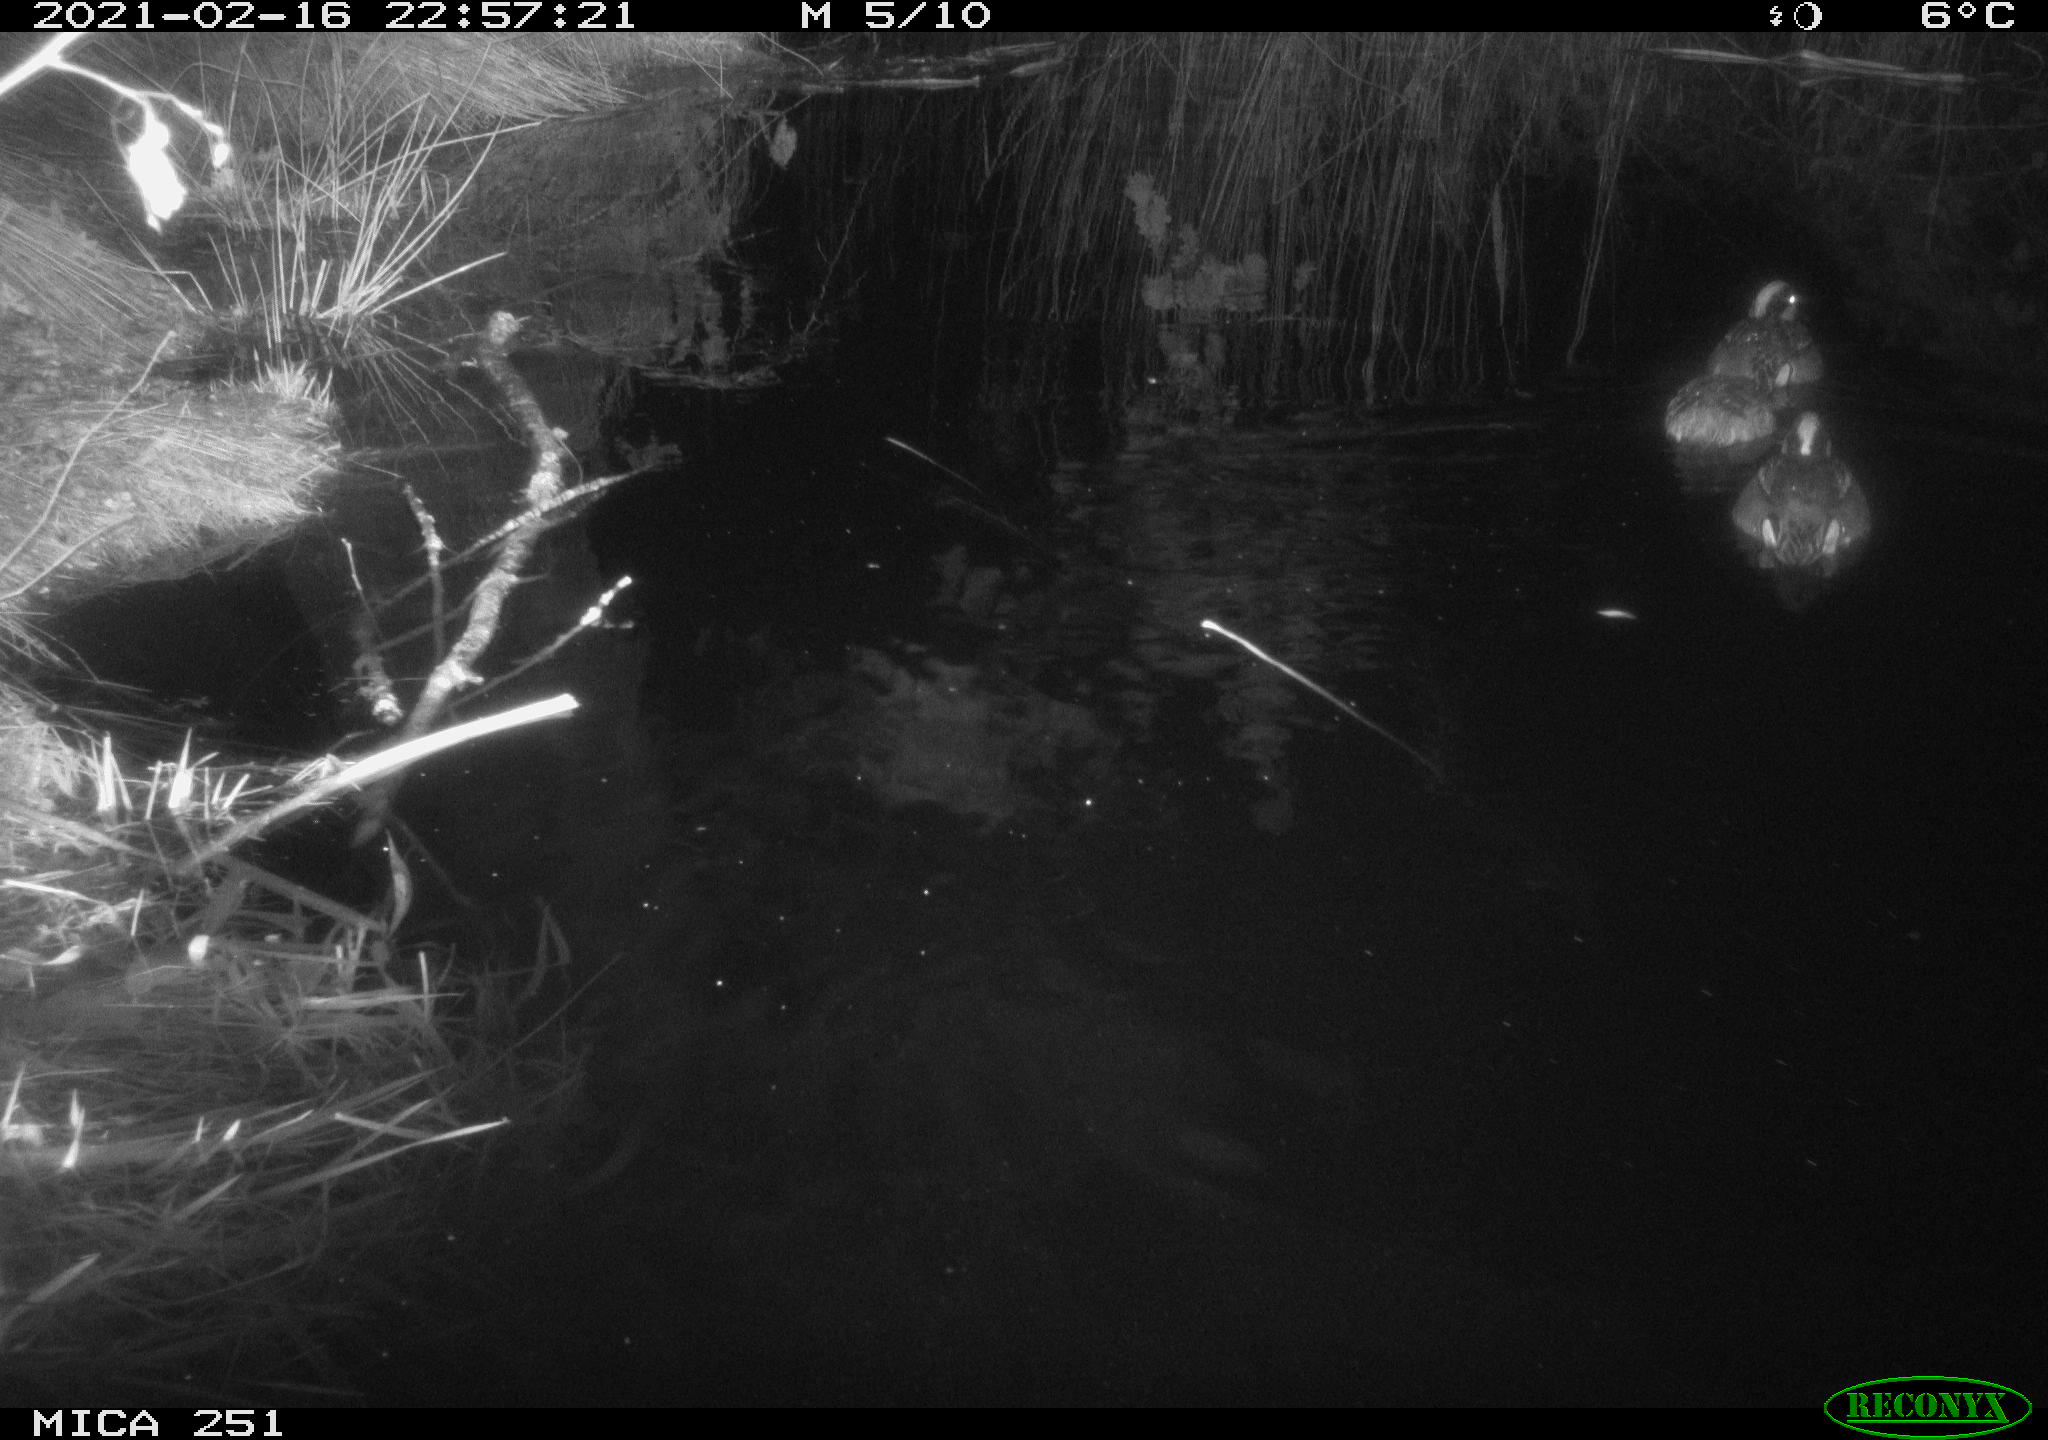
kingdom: Animalia
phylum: Chordata
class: Aves
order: Anseriformes
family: Anatidae
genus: Aix
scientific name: Aix galericulata
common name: Mandarin duck
